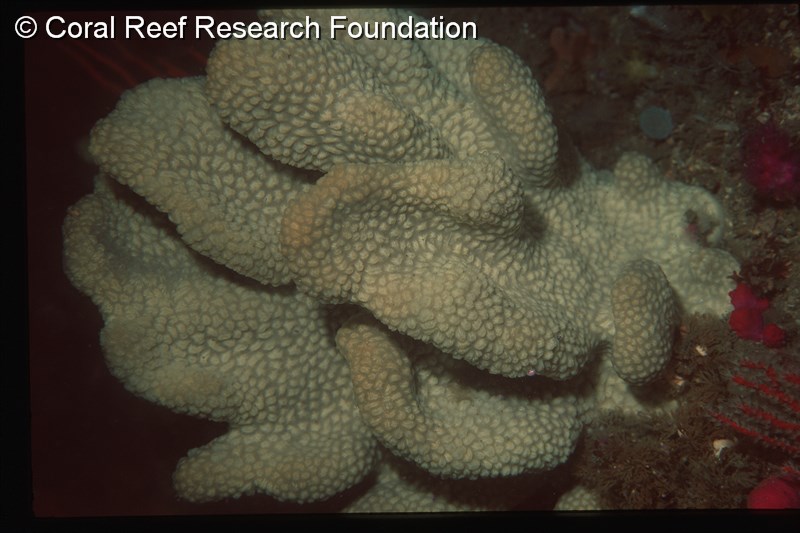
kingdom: Animalia
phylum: Chordata
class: Ascidiacea
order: Aplousobranchia
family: Polyclinidae
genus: Aplidium
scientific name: Aplidium
